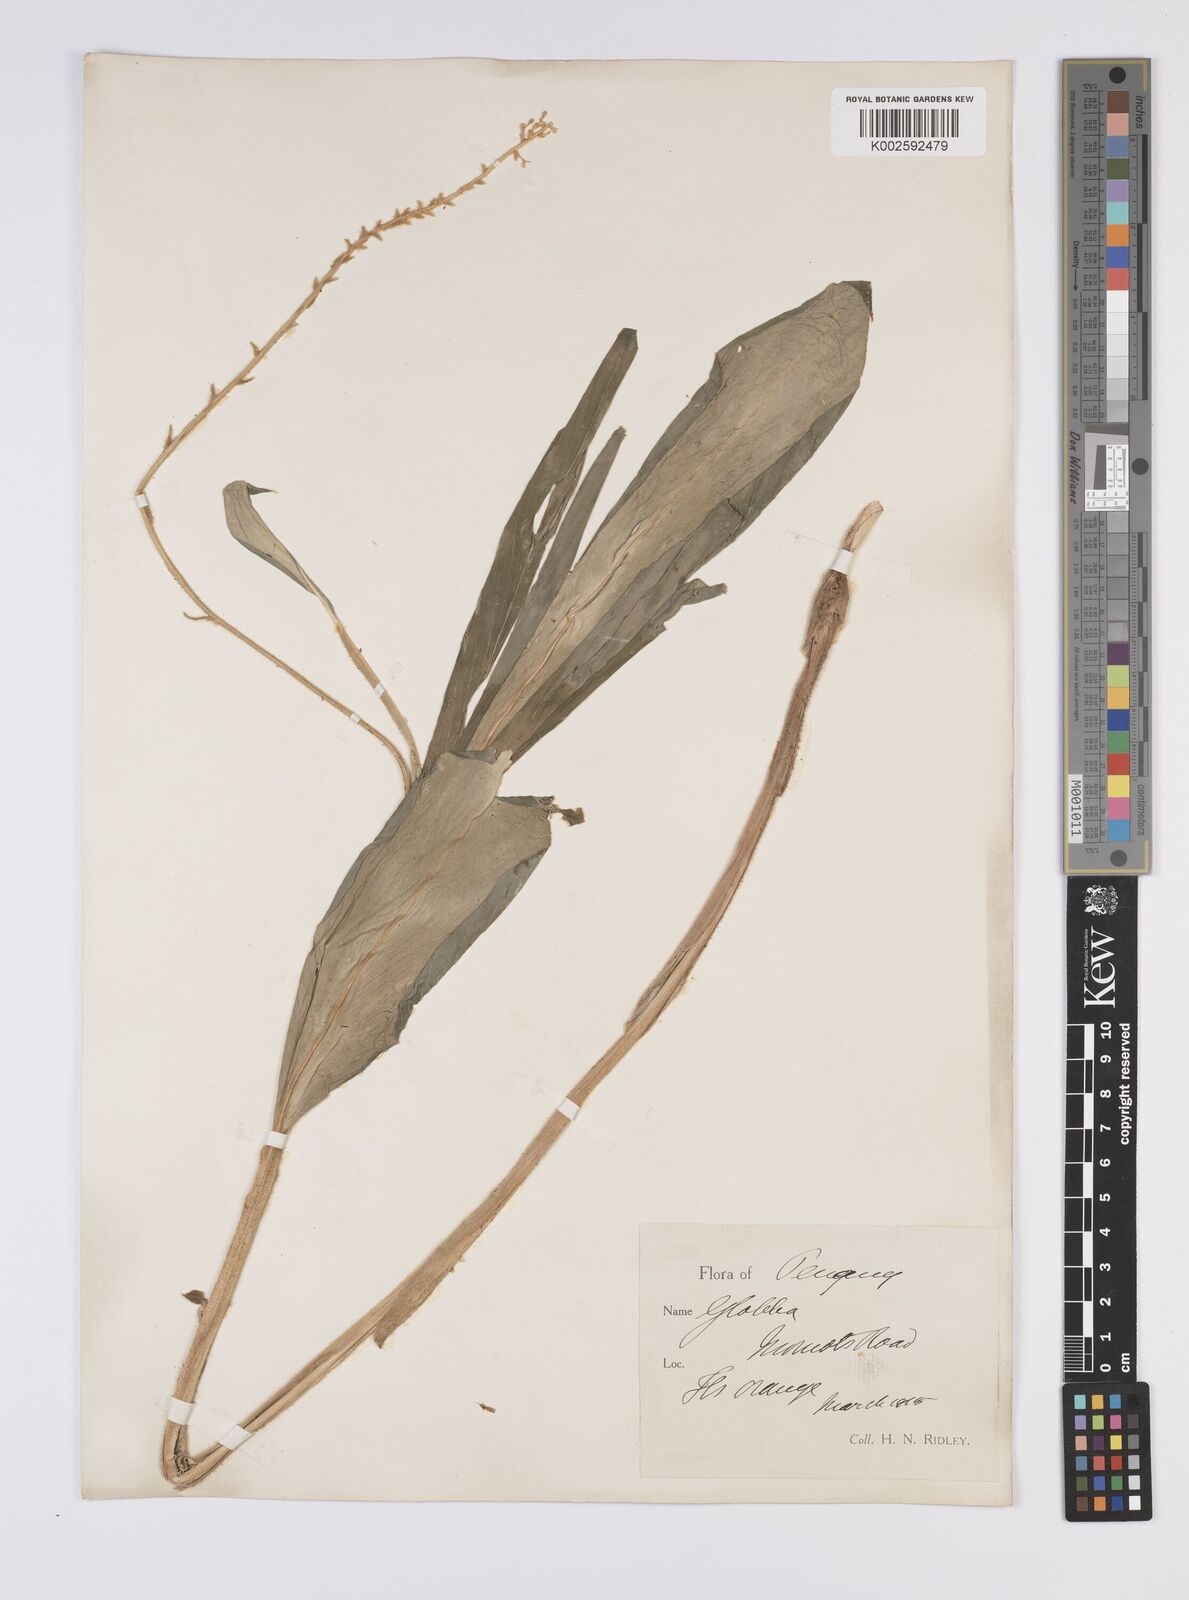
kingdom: Plantae
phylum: Tracheophyta
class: Liliopsida
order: Zingiberales
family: Zingiberaceae
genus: Globba
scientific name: Globba aurantiaca
